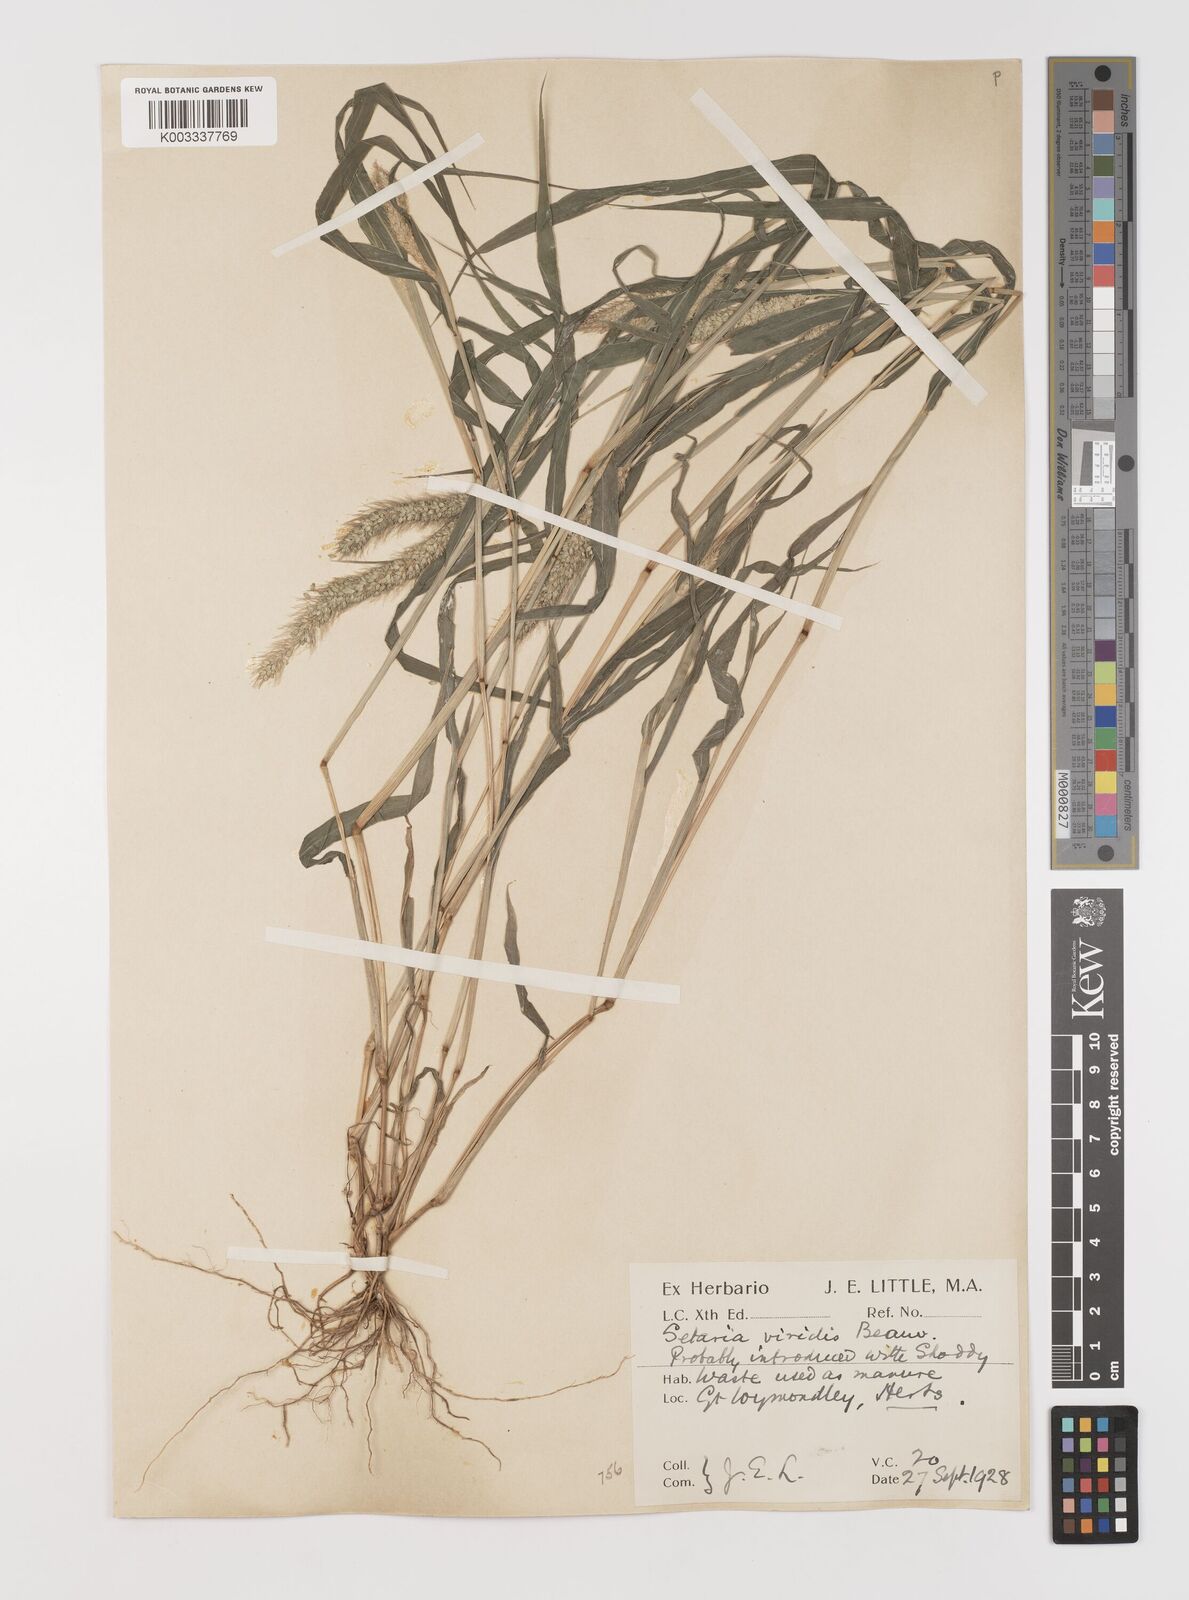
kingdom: Plantae
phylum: Tracheophyta
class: Liliopsida
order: Poales
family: Poaceae
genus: Setaria
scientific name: Setaria viridis
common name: Green bristlegrass
